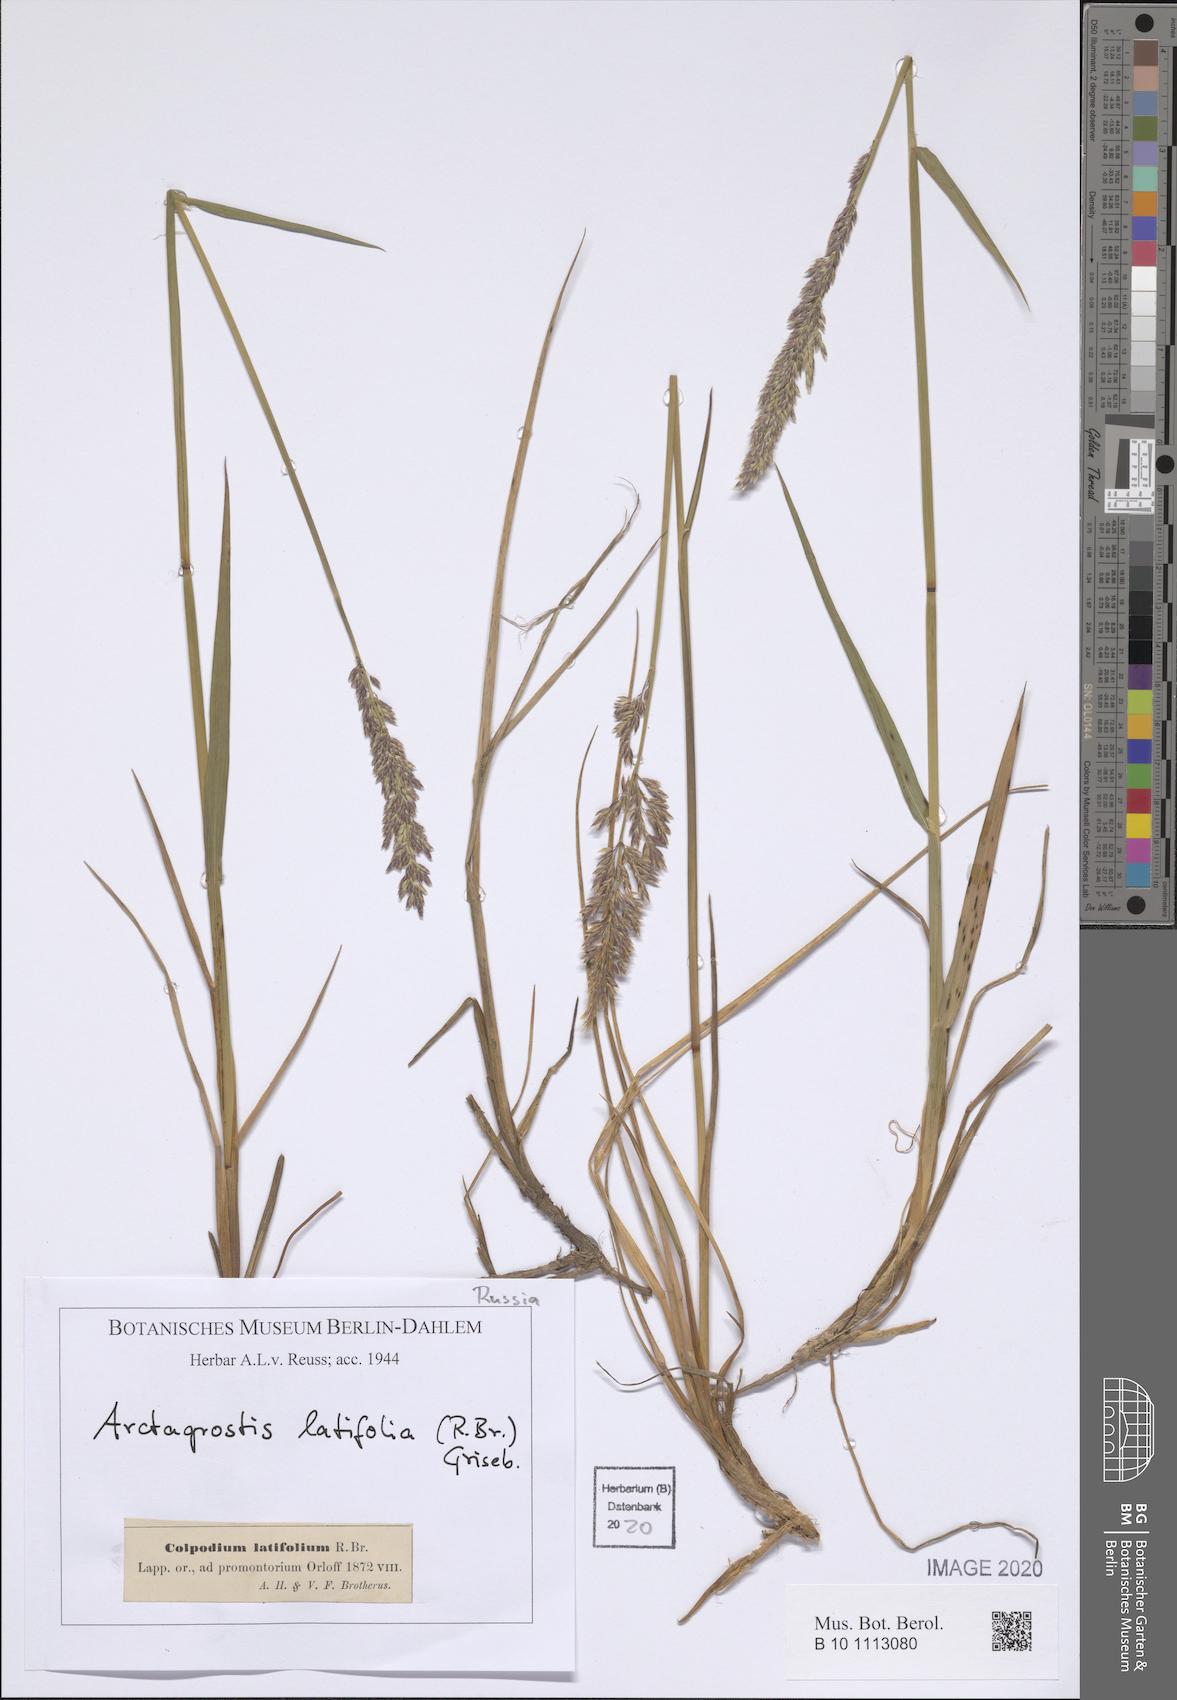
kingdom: Plantae
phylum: Tracheophyta
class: Liliopsida
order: Poales
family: Poaceae
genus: Arctagrostis
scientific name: Arctagrostis latifolia
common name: Arctic grass
